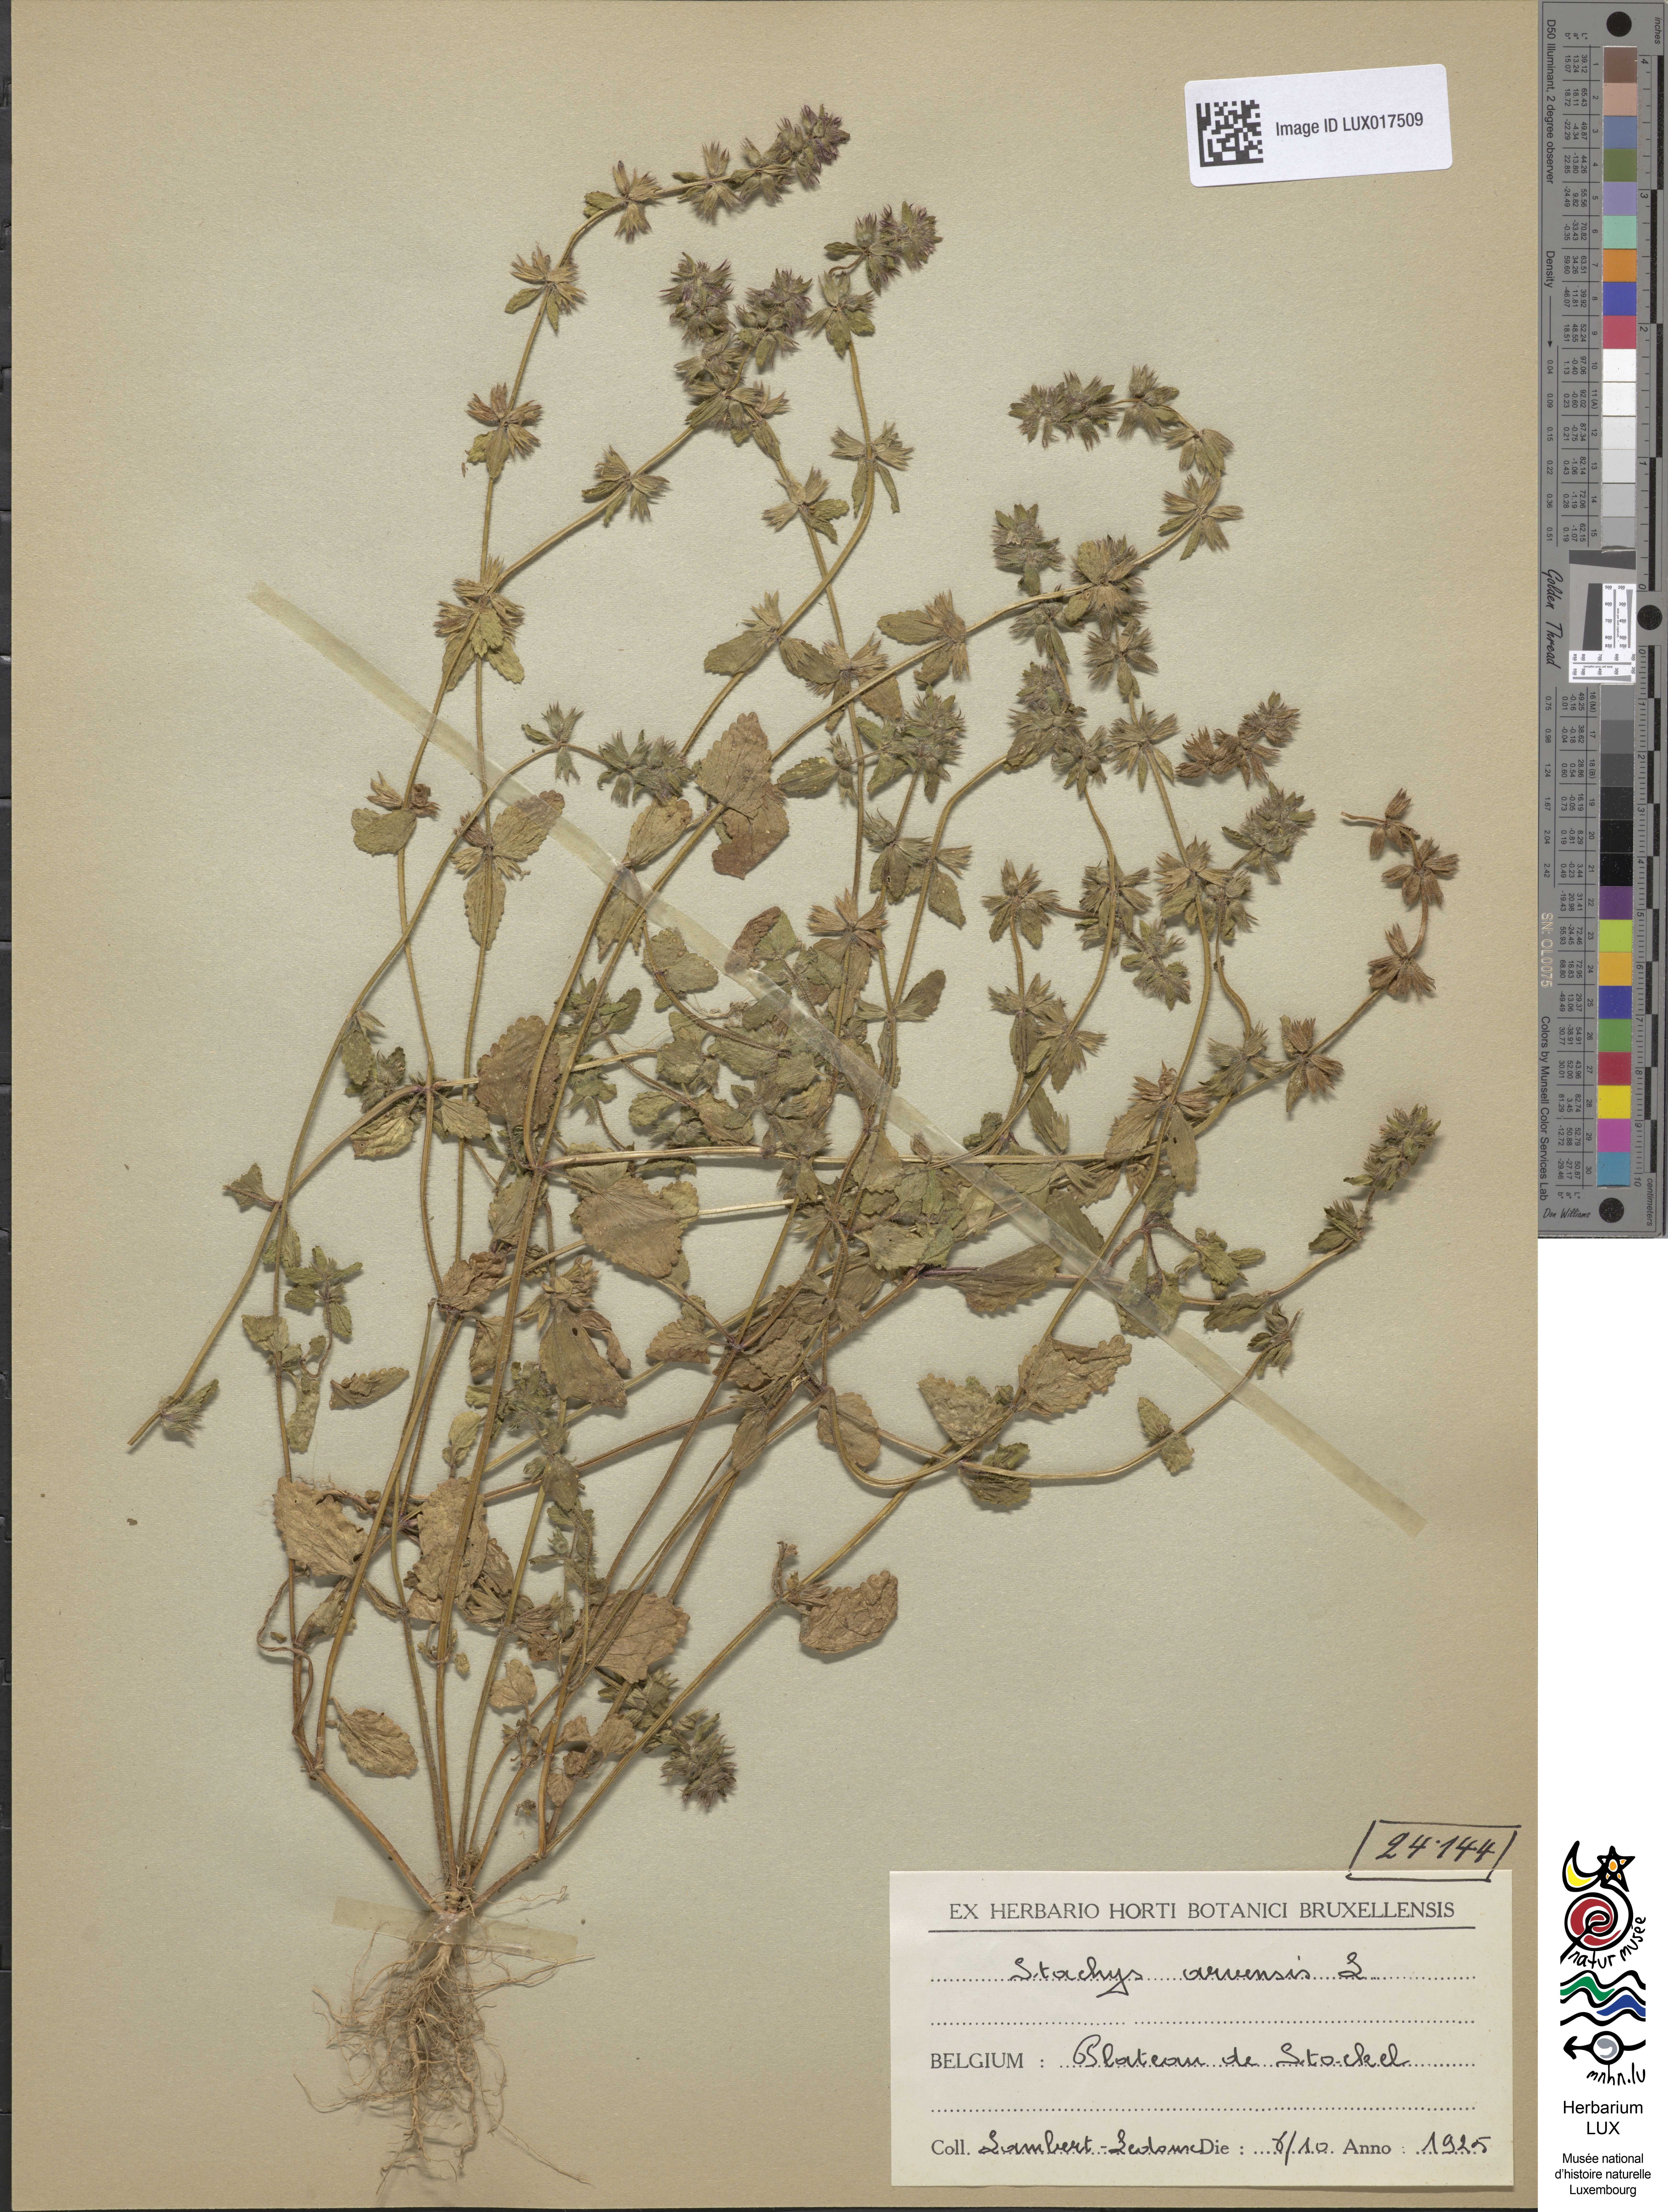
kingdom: Plantae
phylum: Tracheophyta
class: Magnoliopsida
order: Lamiales
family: Lamiaceae
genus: Stachys
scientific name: Stachys arvensis
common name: Field woundwort
